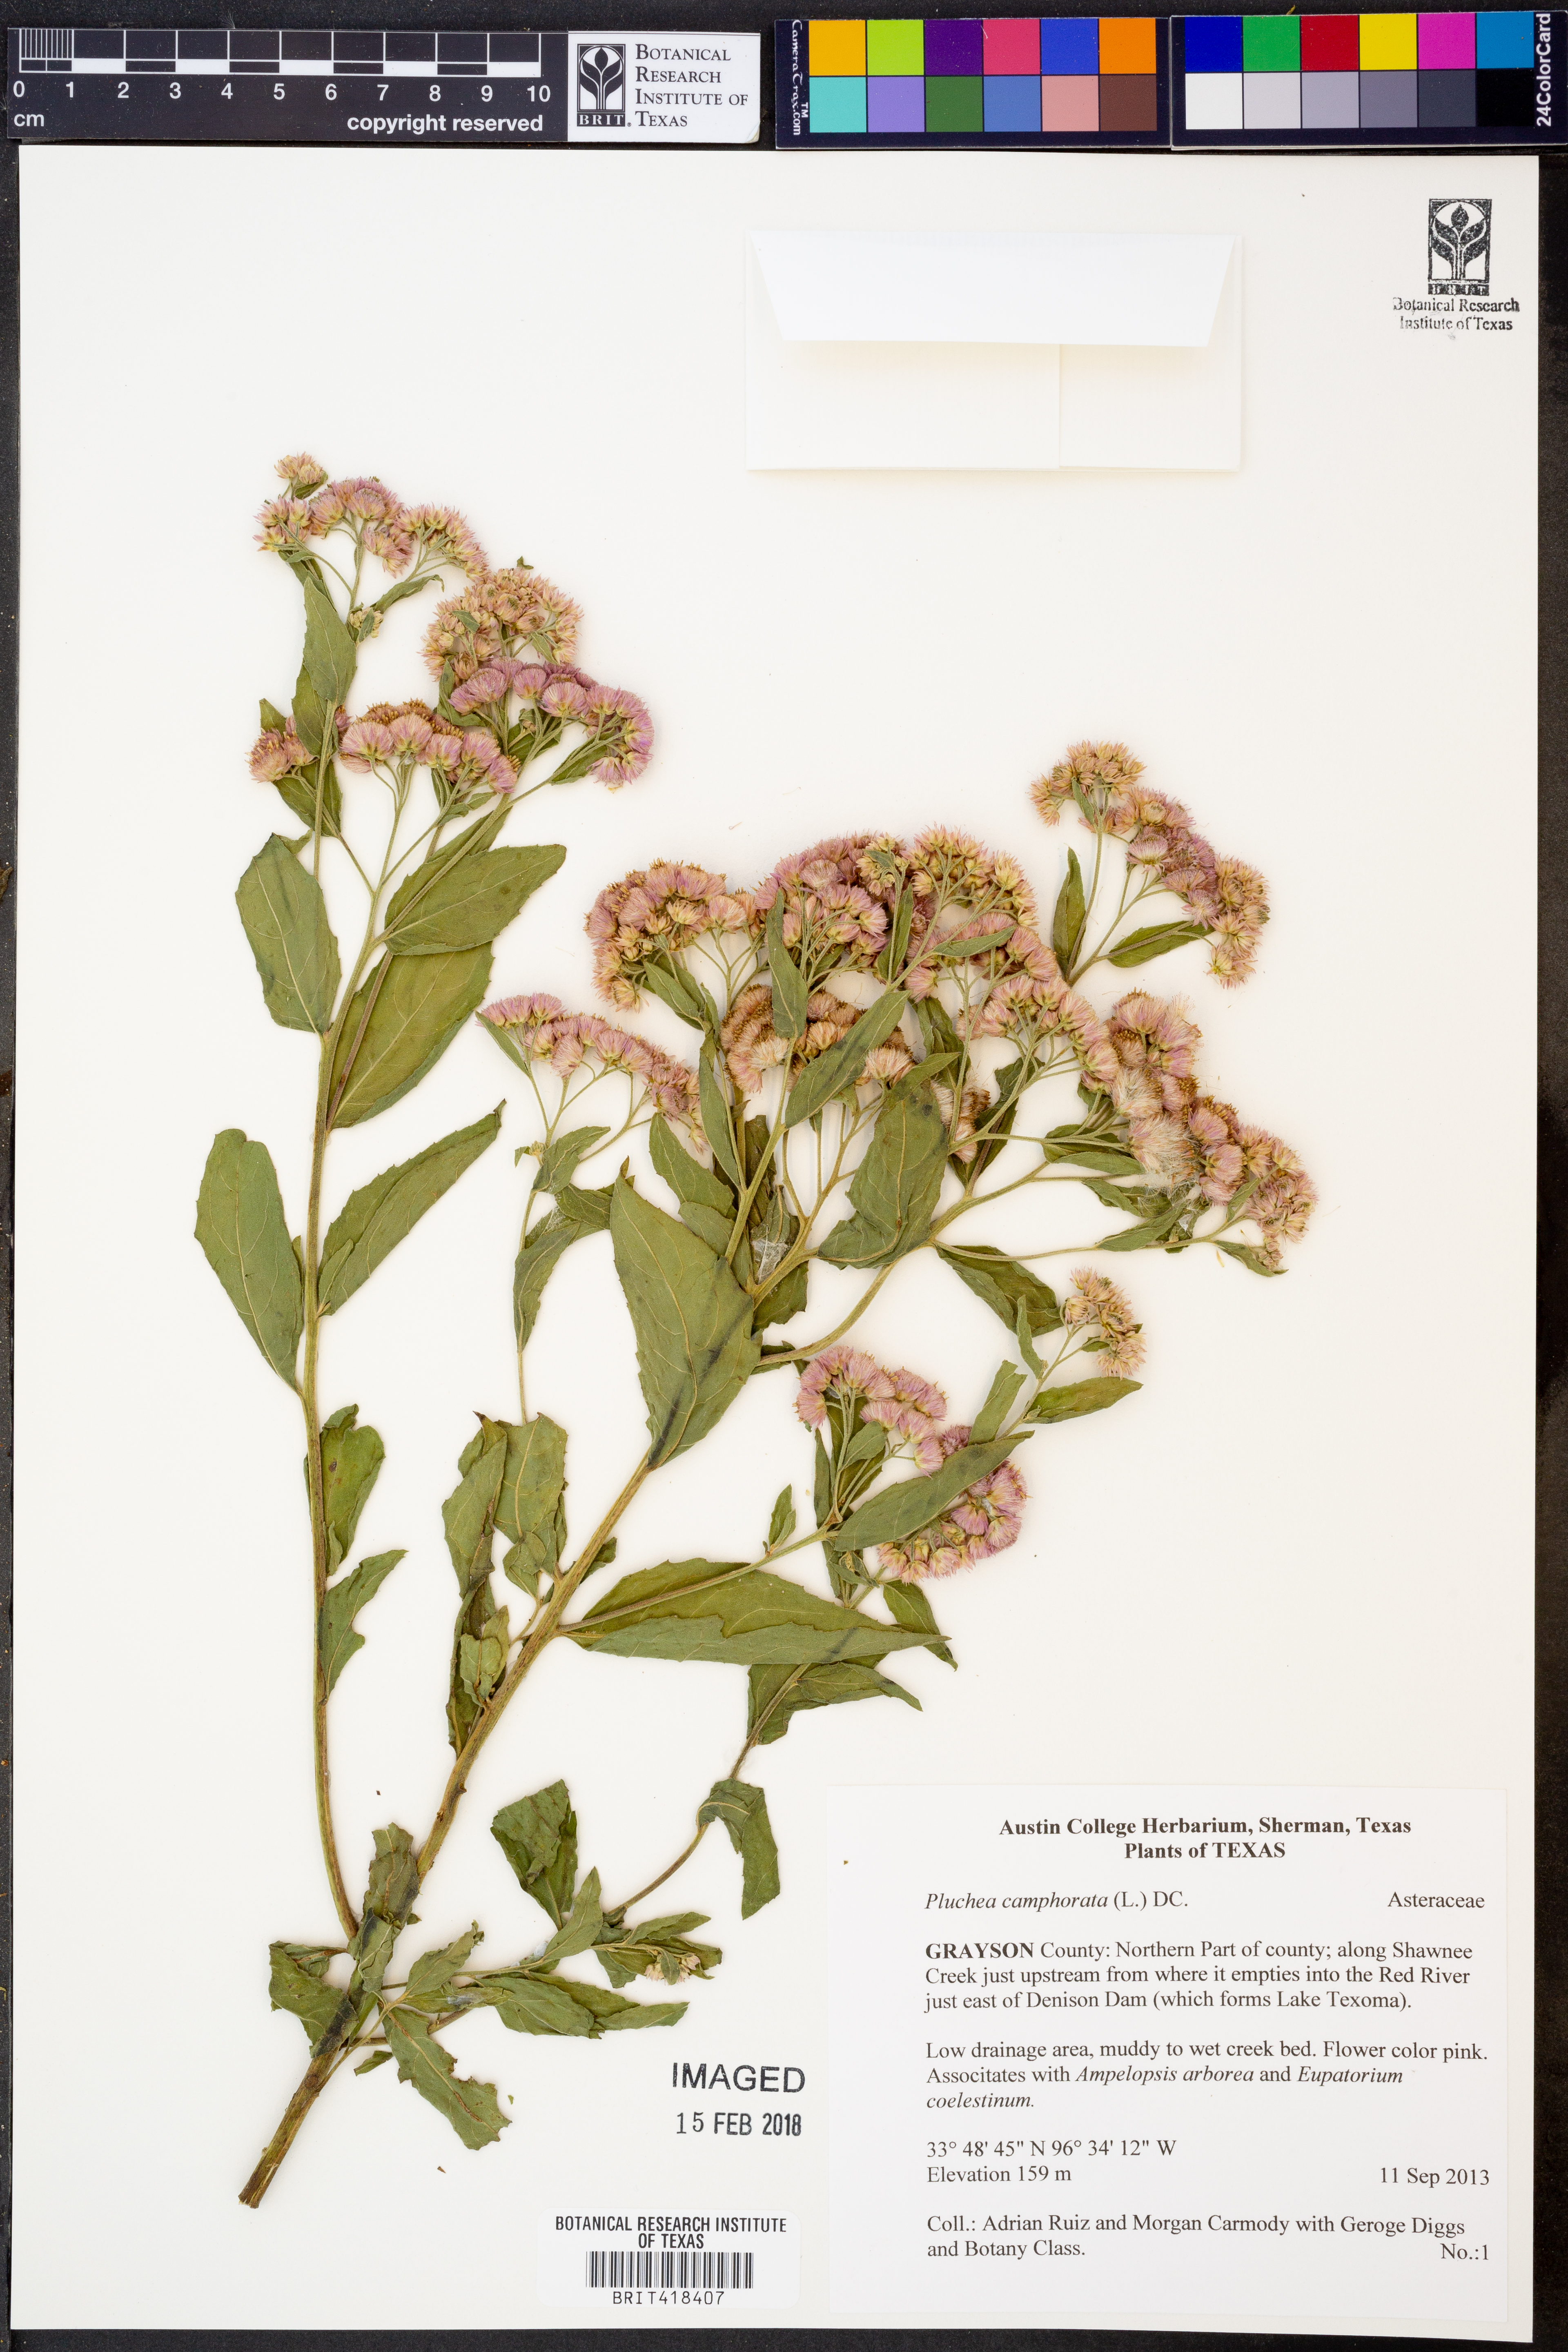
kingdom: Plantae
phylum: Tracheophyta
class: Magnoliopsida
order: Asterales
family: Asteraceae
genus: Pluchea
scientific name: Pluchea camphorata
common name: Camphor pluchea
